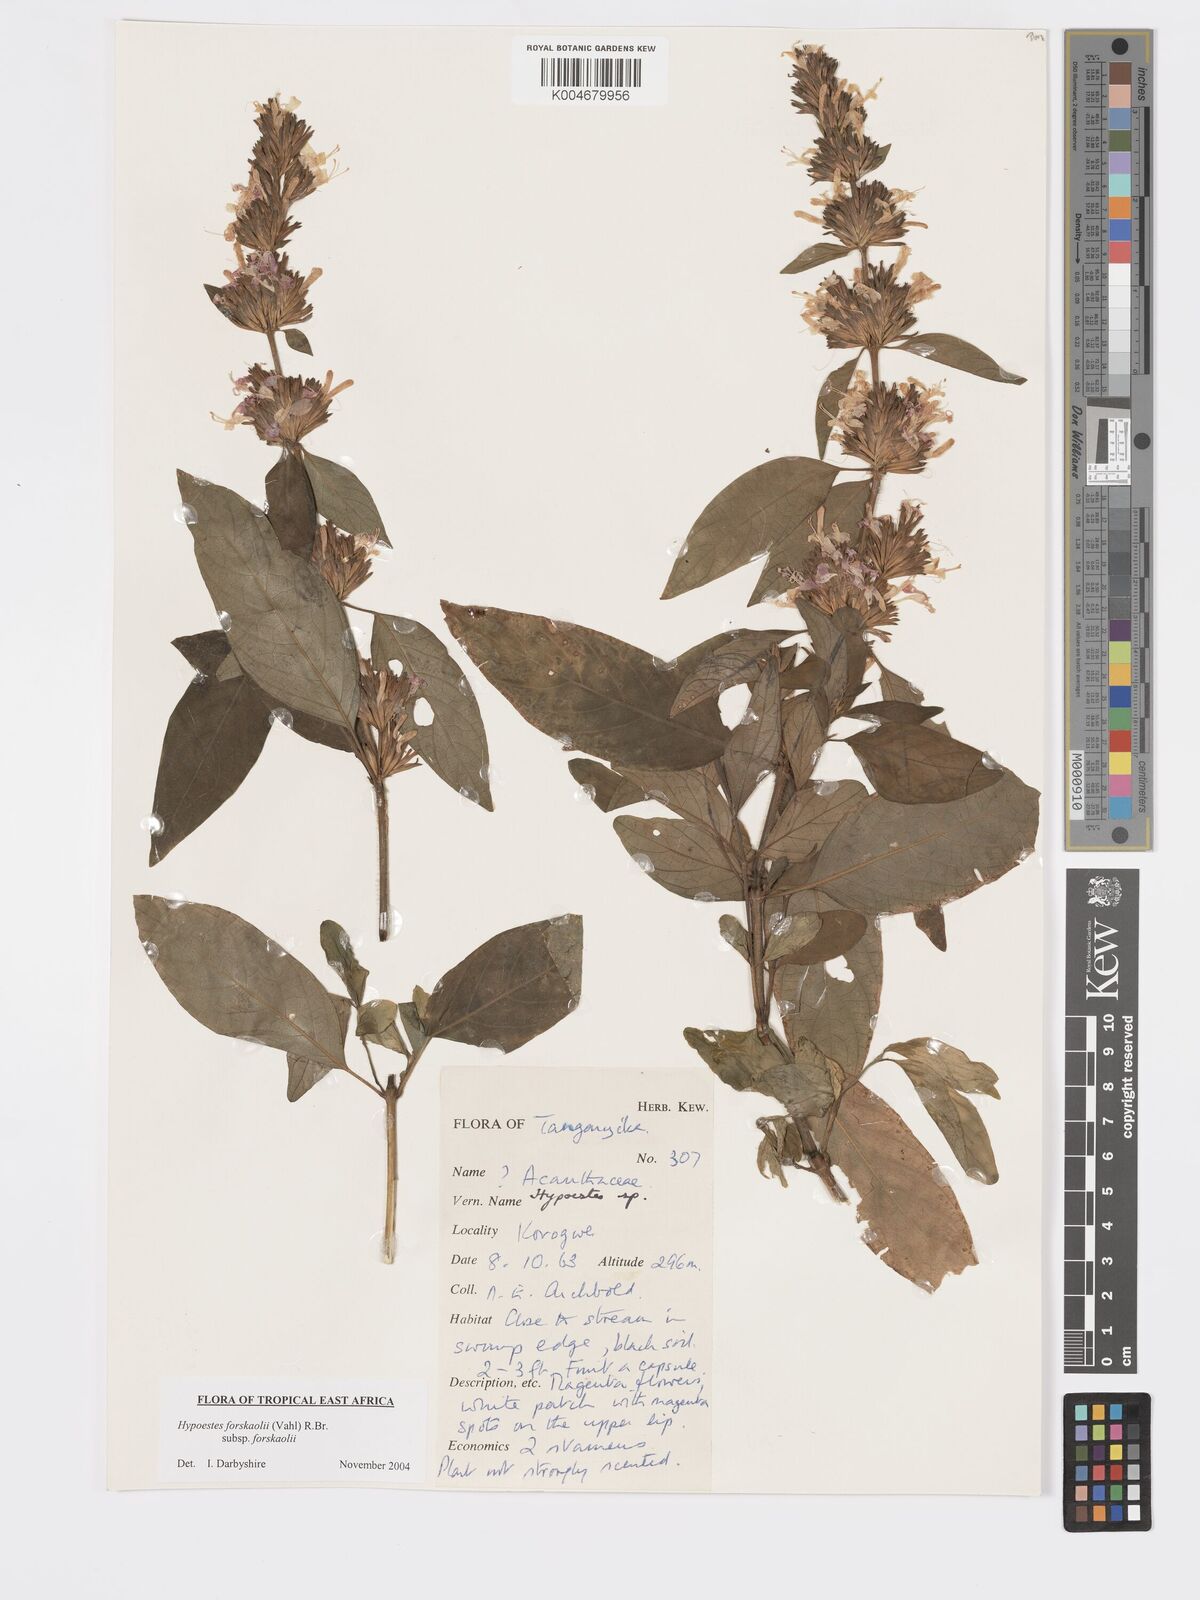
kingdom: Plantae
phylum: Tracheophyta
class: Magnoliopsida
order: Lamiales
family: Acanthaceae
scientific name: Acanthaceae
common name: Acanthaceae
